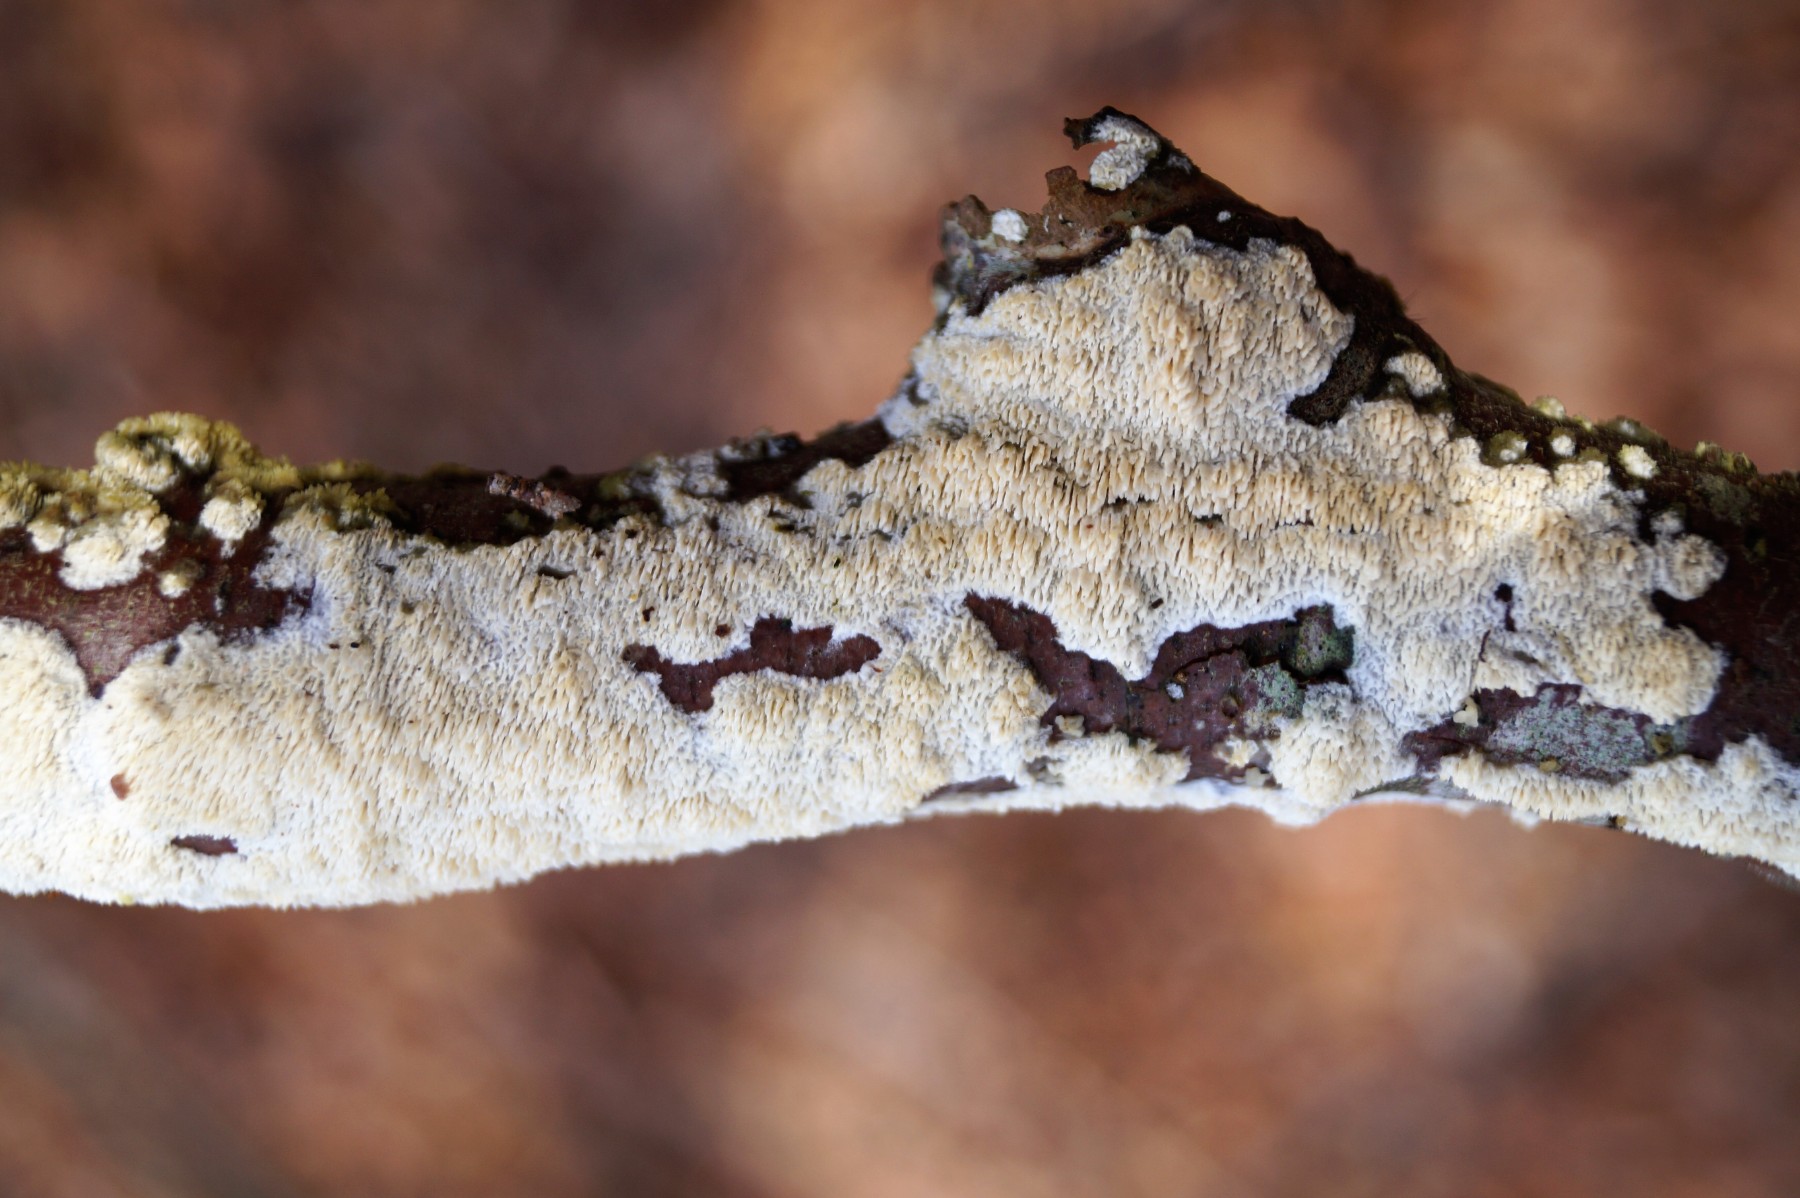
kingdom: Fungi
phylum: Basidiomycota
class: Agaricomycetes
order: Hymenochaetales
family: Schizoporaceae
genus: Xylodon
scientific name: Xylodon
